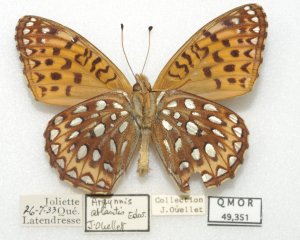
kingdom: Animalia
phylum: Arthropoda
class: Insecta
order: Lepidoptera
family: Nymphalidae
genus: Speyeria
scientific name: Speyeria atlantis
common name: Atlantis Fritillary
